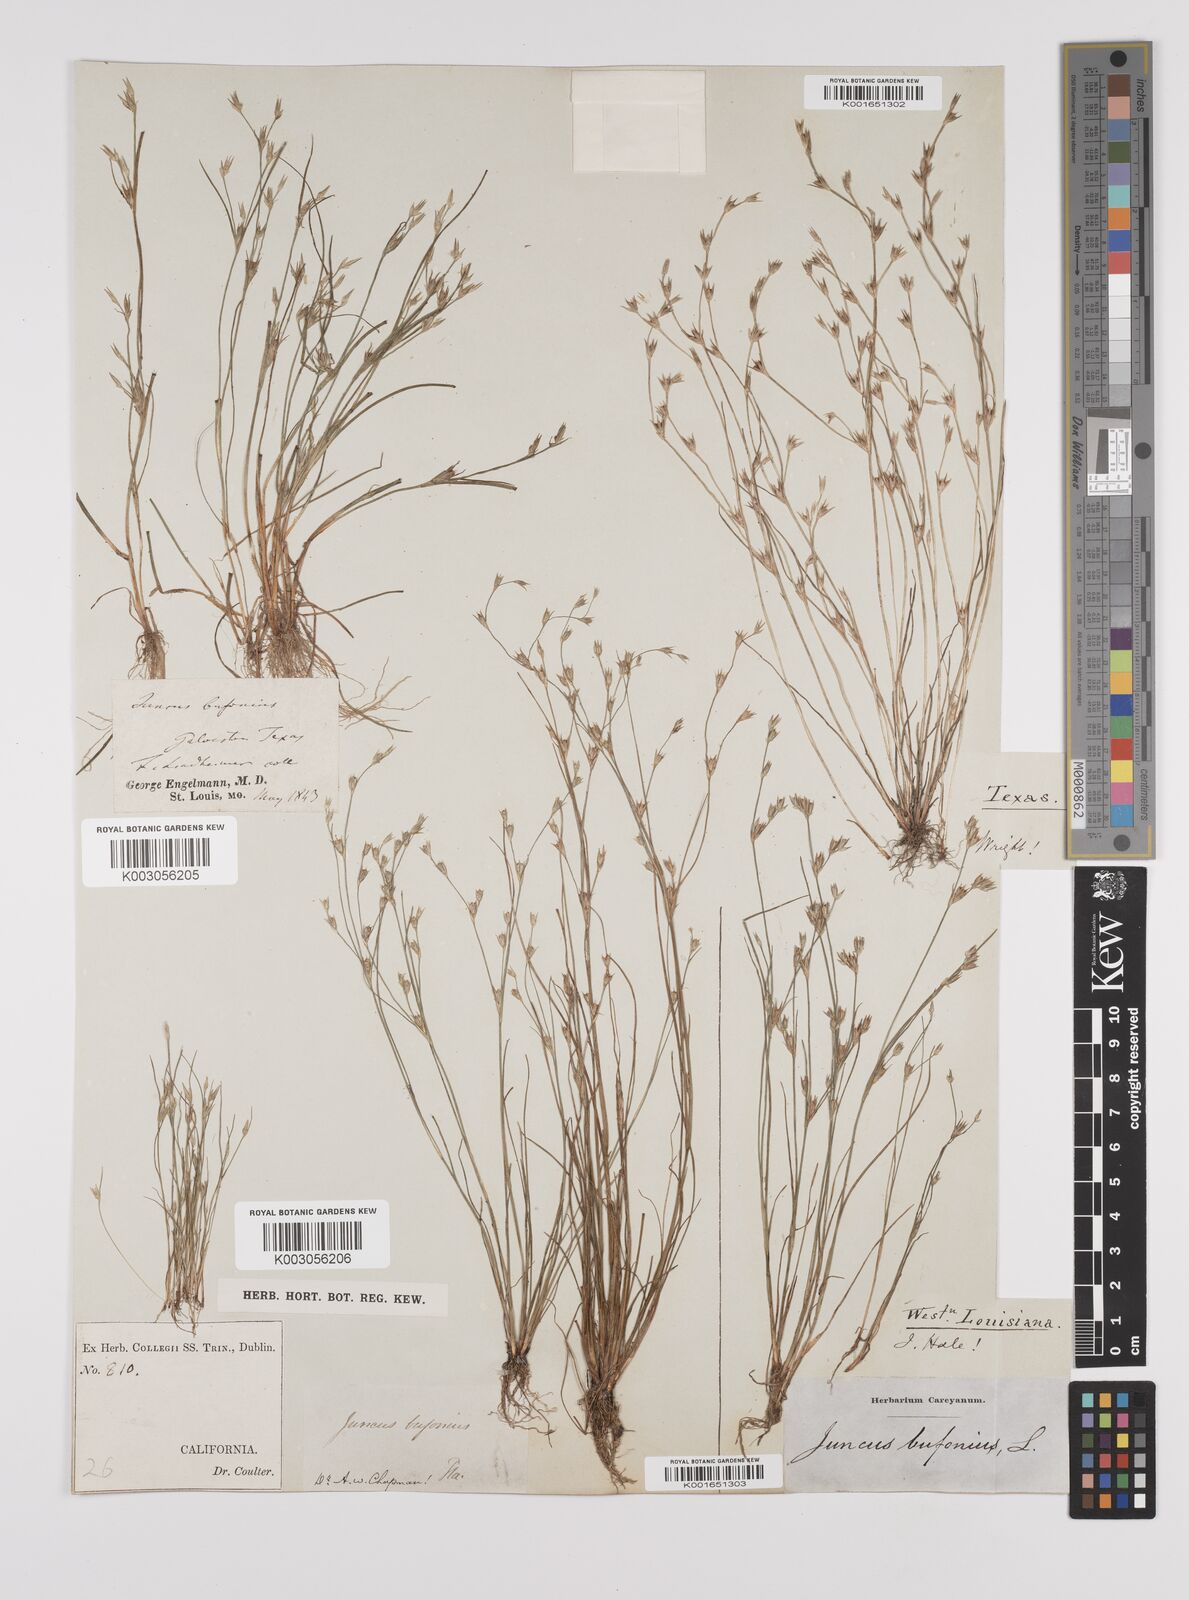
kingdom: Plantae
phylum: Tracheophyta
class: Liliopsida
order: Poales
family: Juncaceae
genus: Juncus
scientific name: Juncus bufonius
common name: Toad rush
